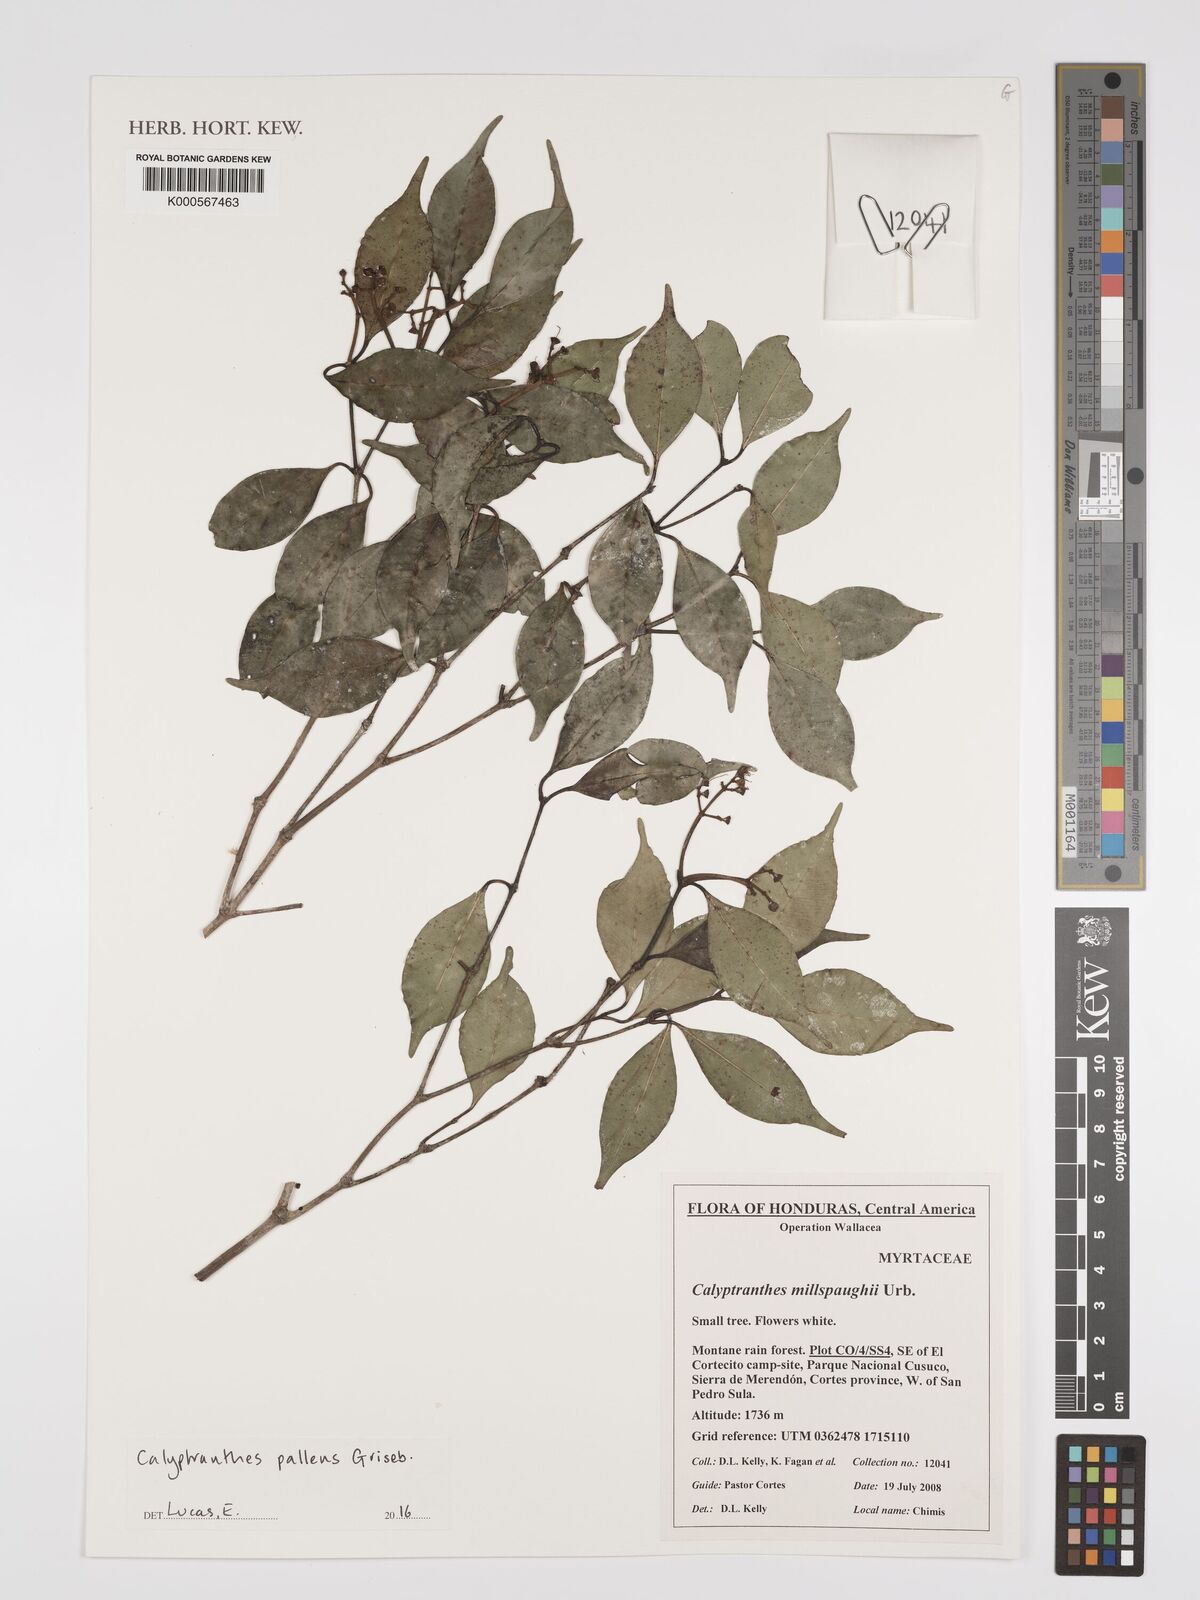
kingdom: Plantae
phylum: Tracheophyta
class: Magnoliopsida
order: Myrtales
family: Myrtaceae
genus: Myrcia
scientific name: Myrcia neopallens
